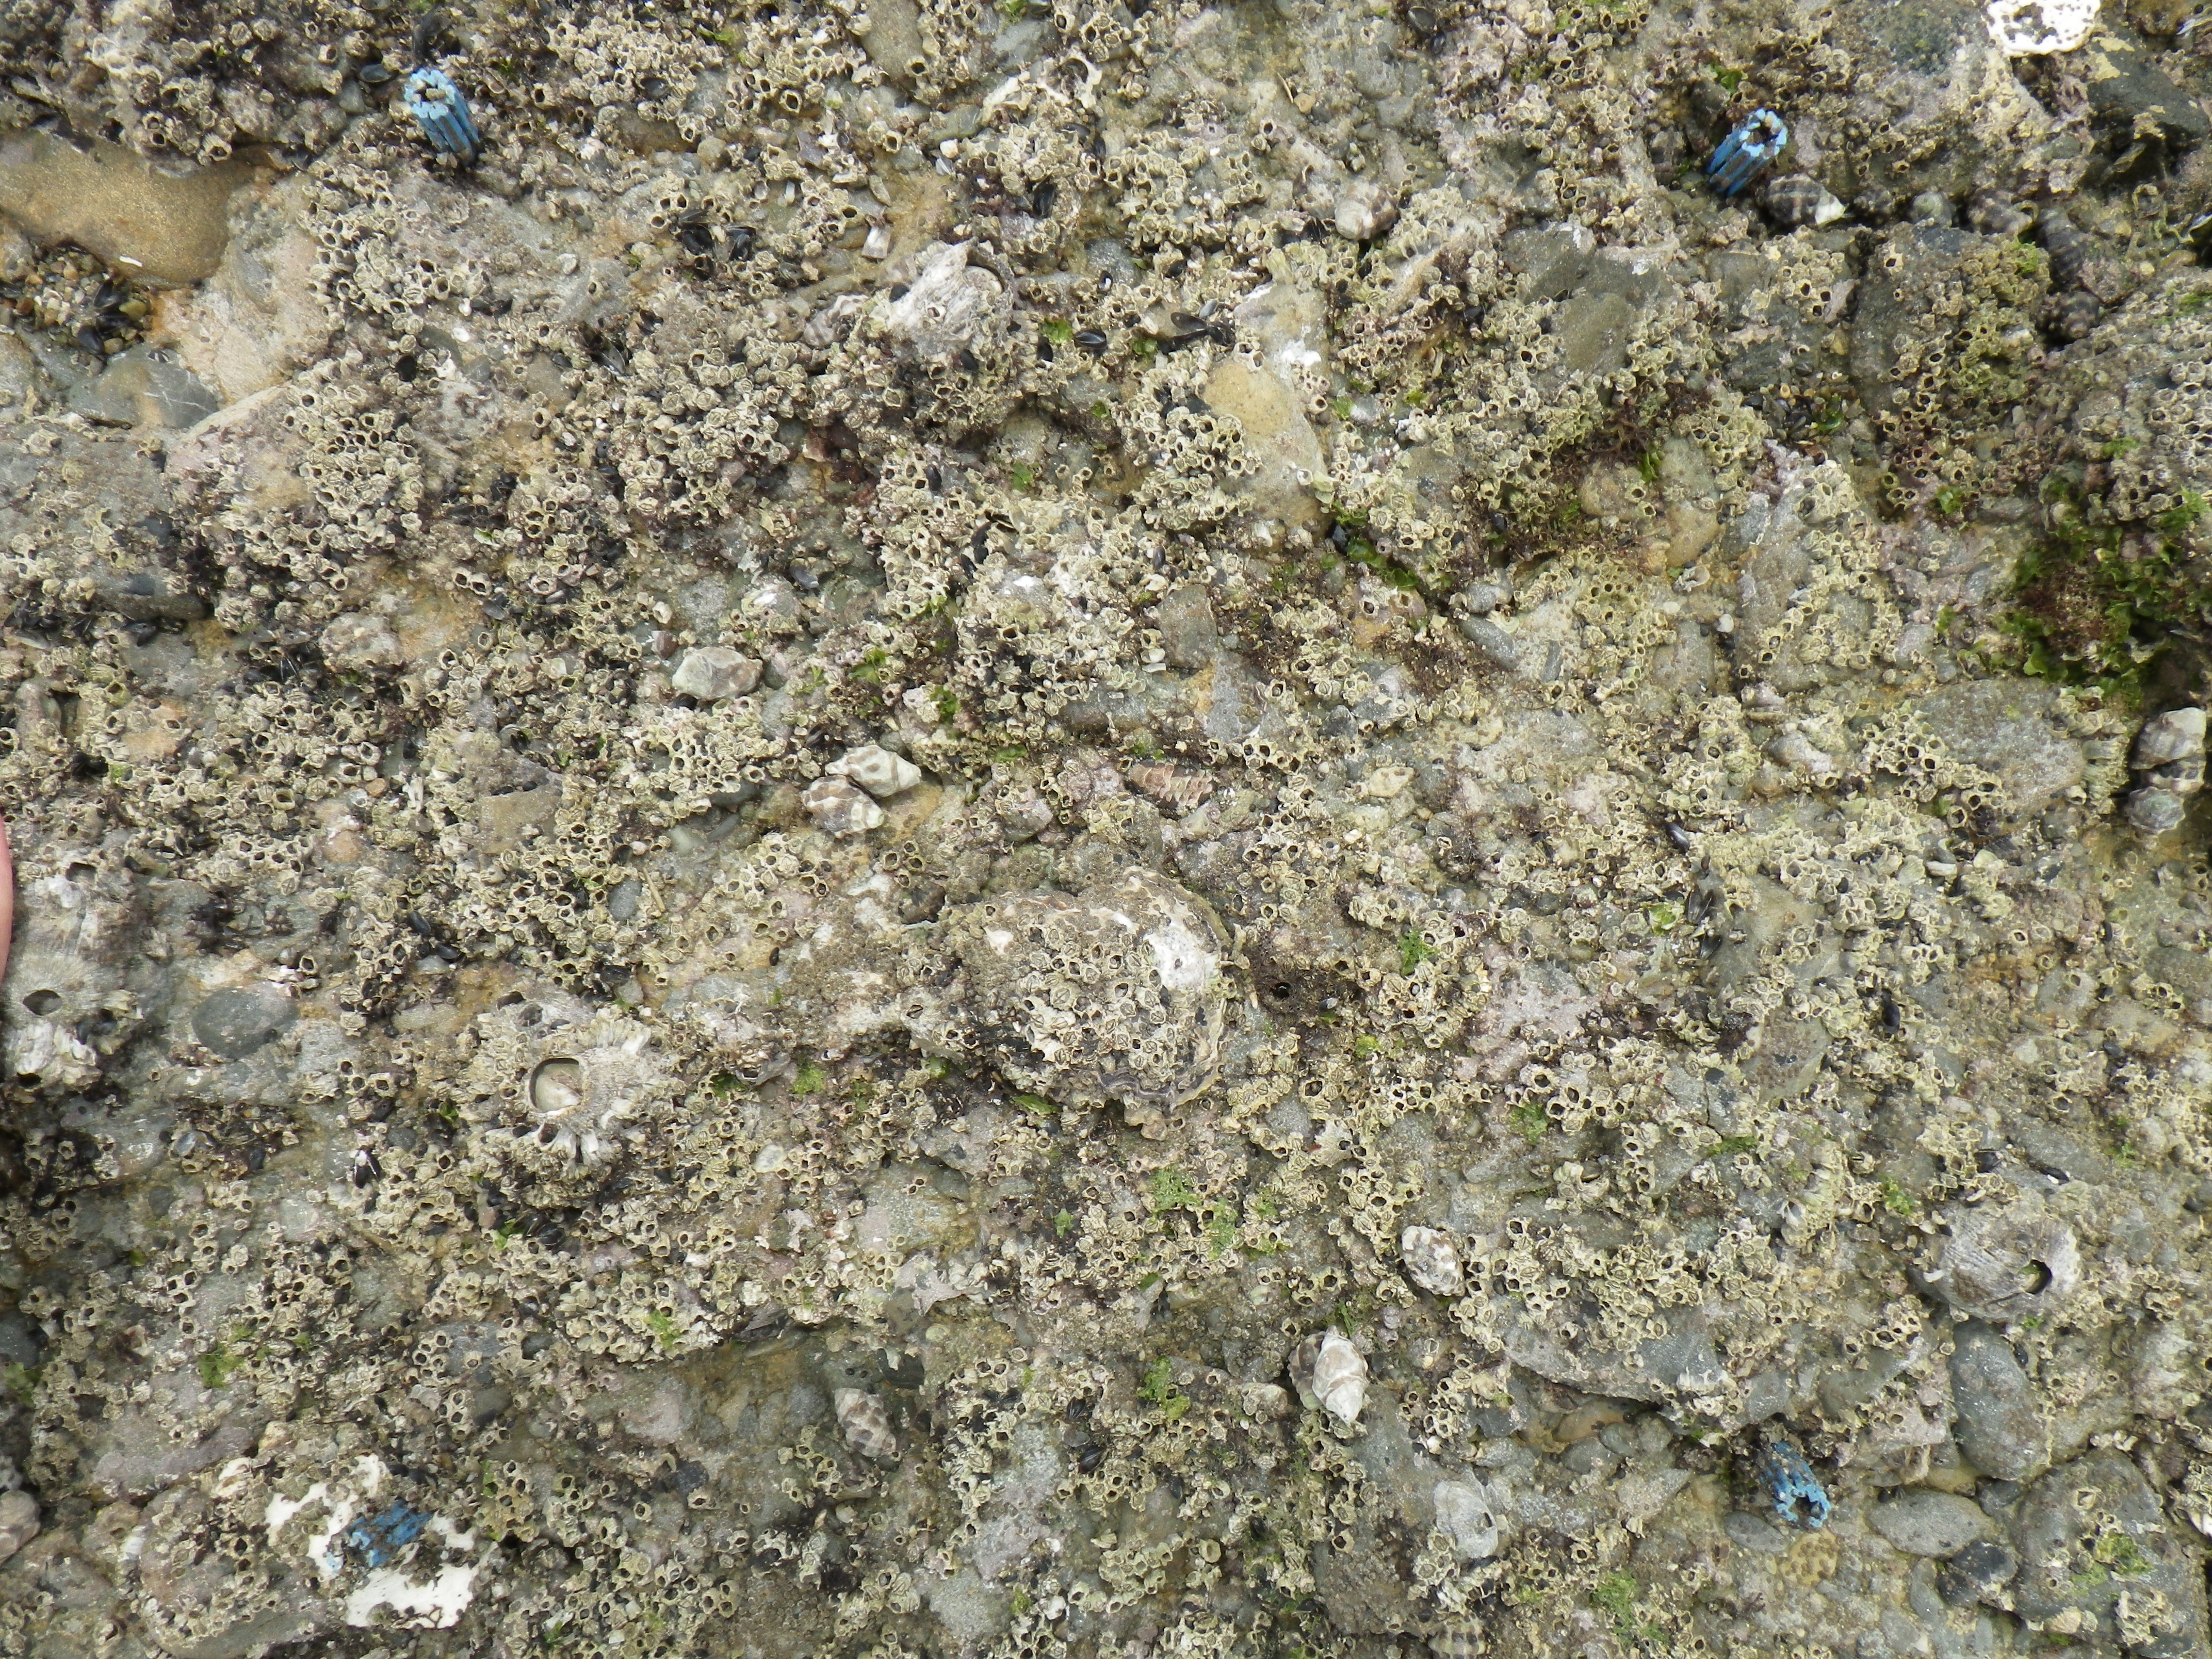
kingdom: Animalia
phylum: Arthropoda
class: Maxillopoda
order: Sessilia
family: Chthamalidae
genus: Chthamalus
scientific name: Chthamalus challengeri
